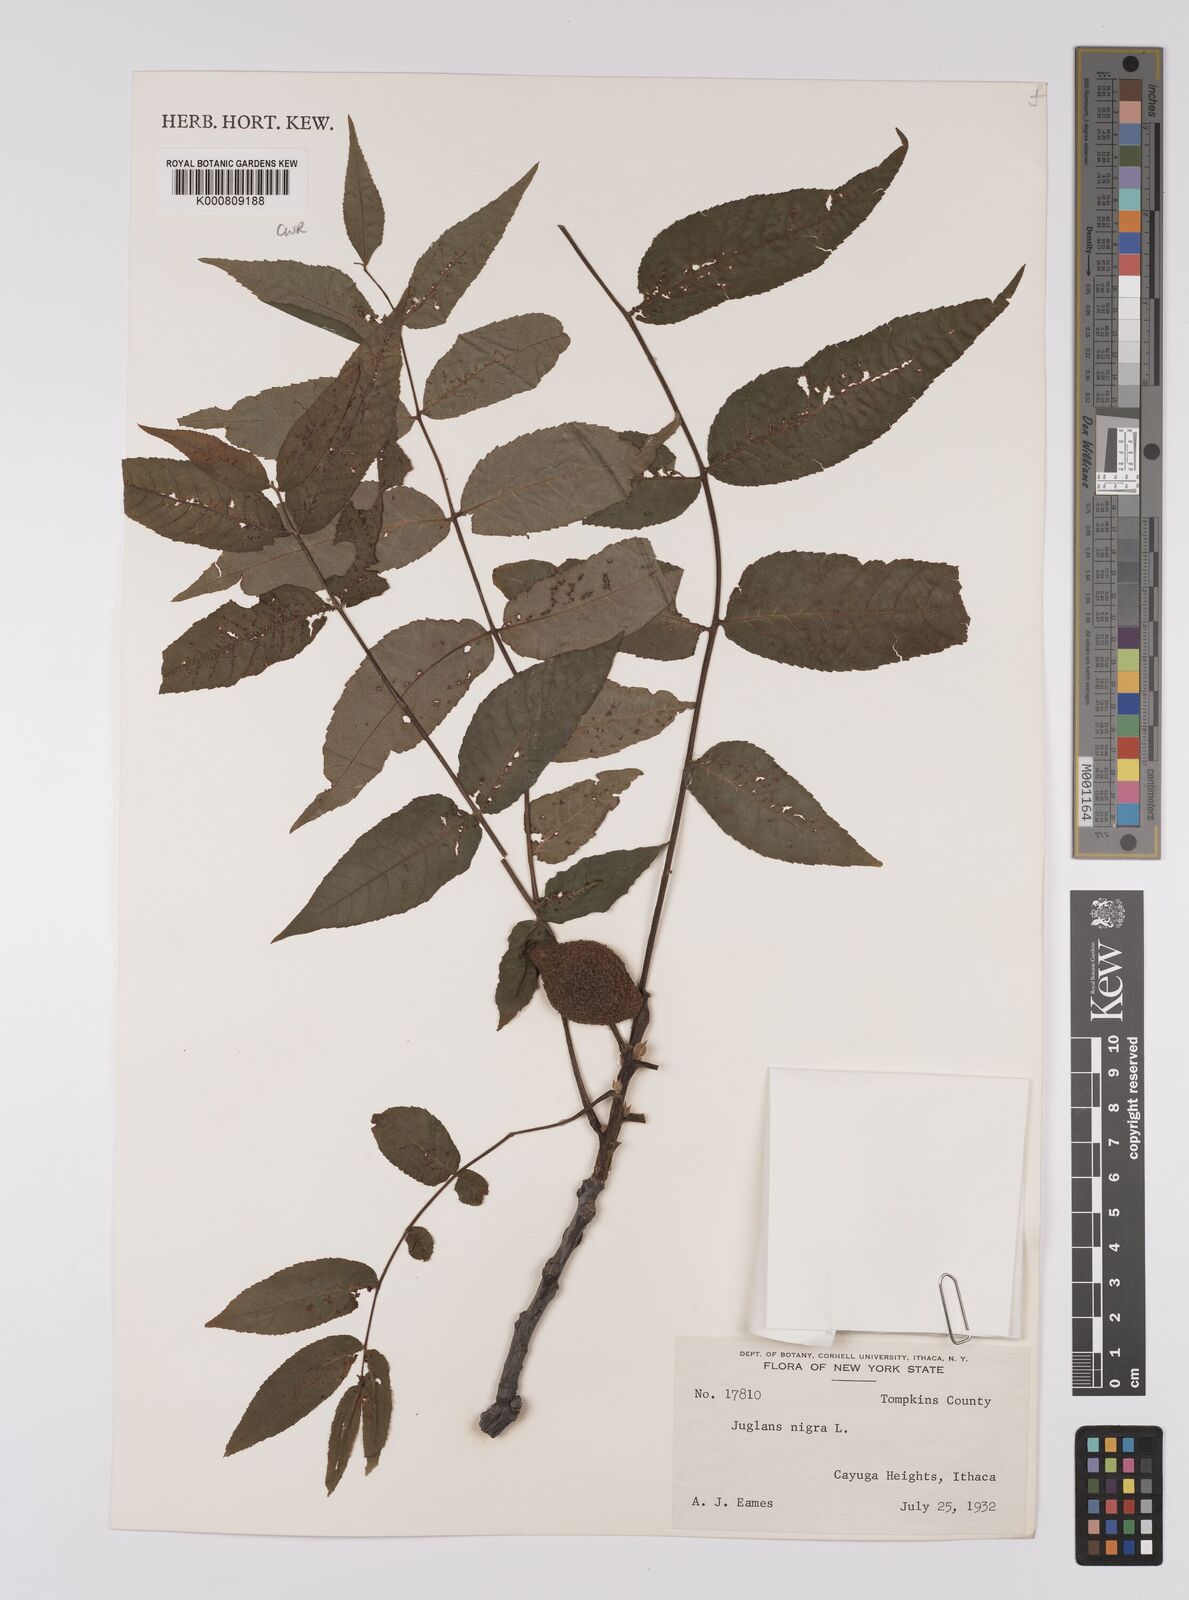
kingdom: Plantae
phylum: Tracheophyta
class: Magnoliopsida
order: Fagales
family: Juglandaceae
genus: Juglans
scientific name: Juglans nigra
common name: Black walnut
